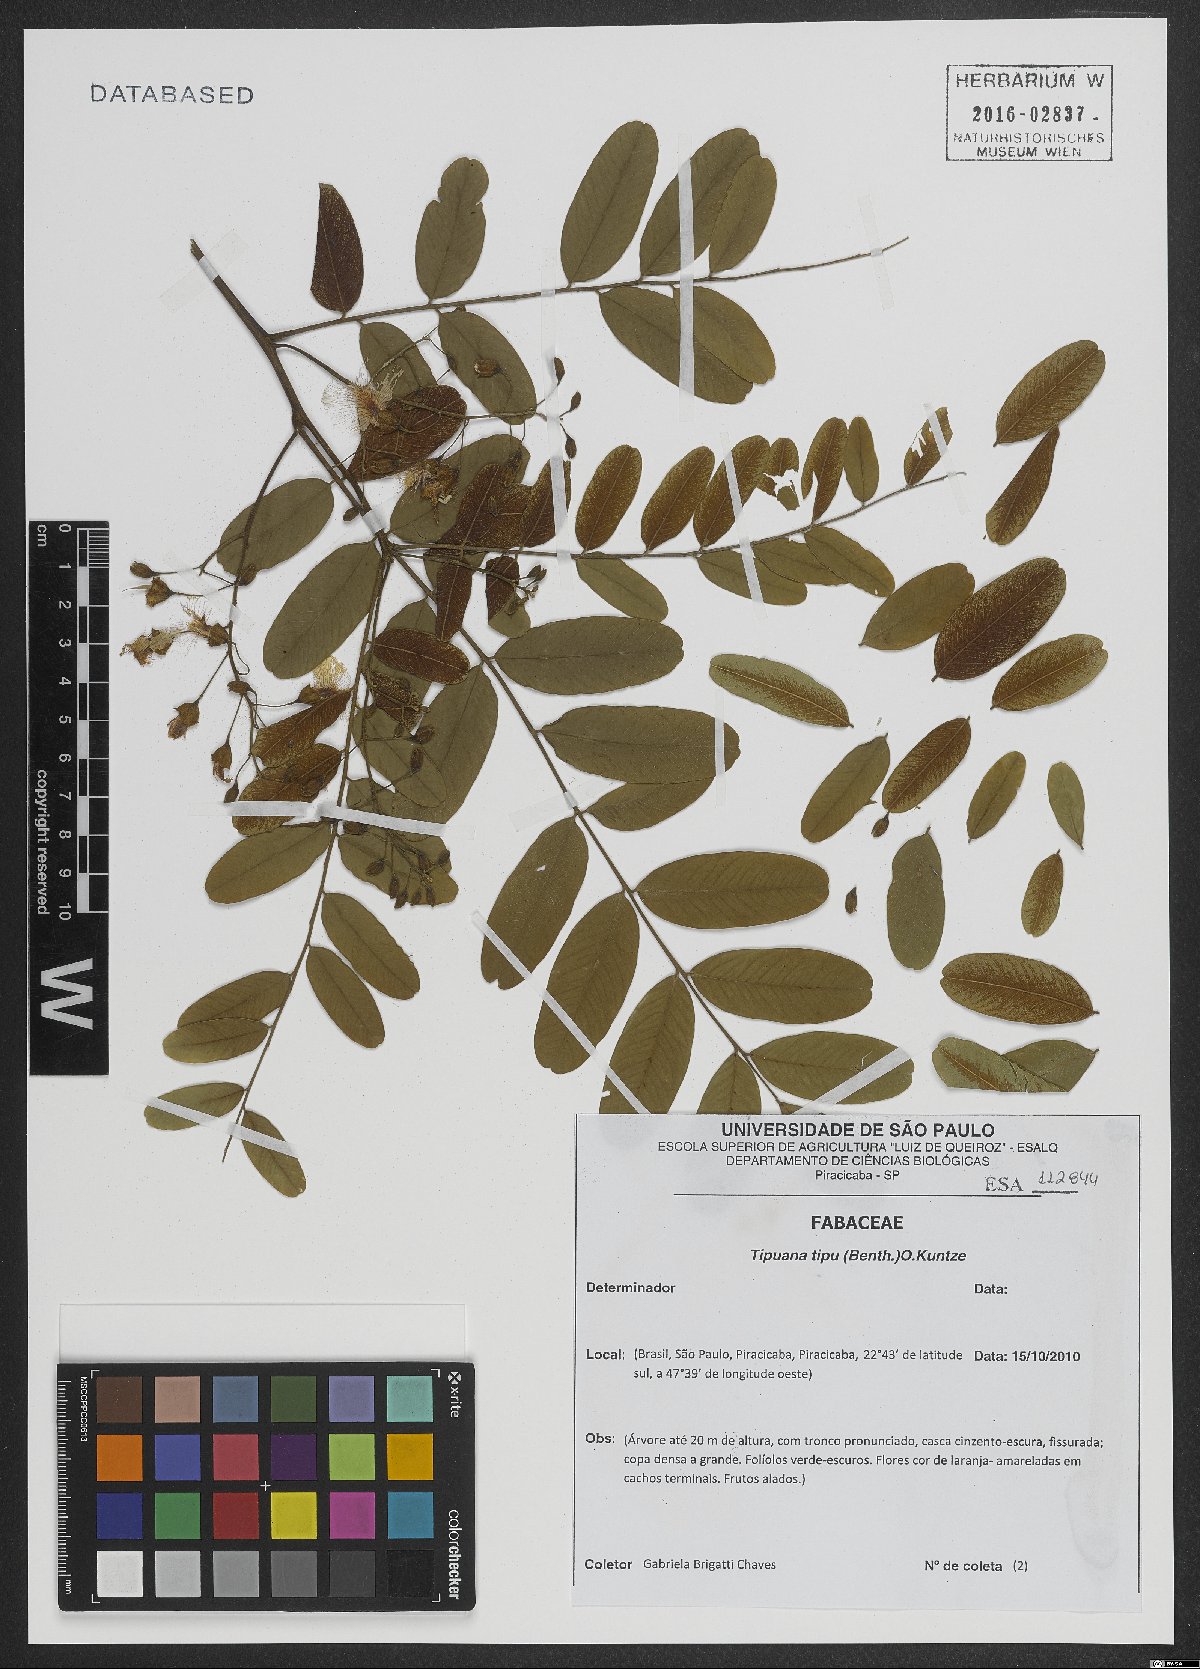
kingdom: Plantae
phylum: Tracheophyta
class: Magnoliopsida
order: Fabales
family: Fabaceae
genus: Tipuana
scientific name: Tipuana tipu
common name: Tiputree
